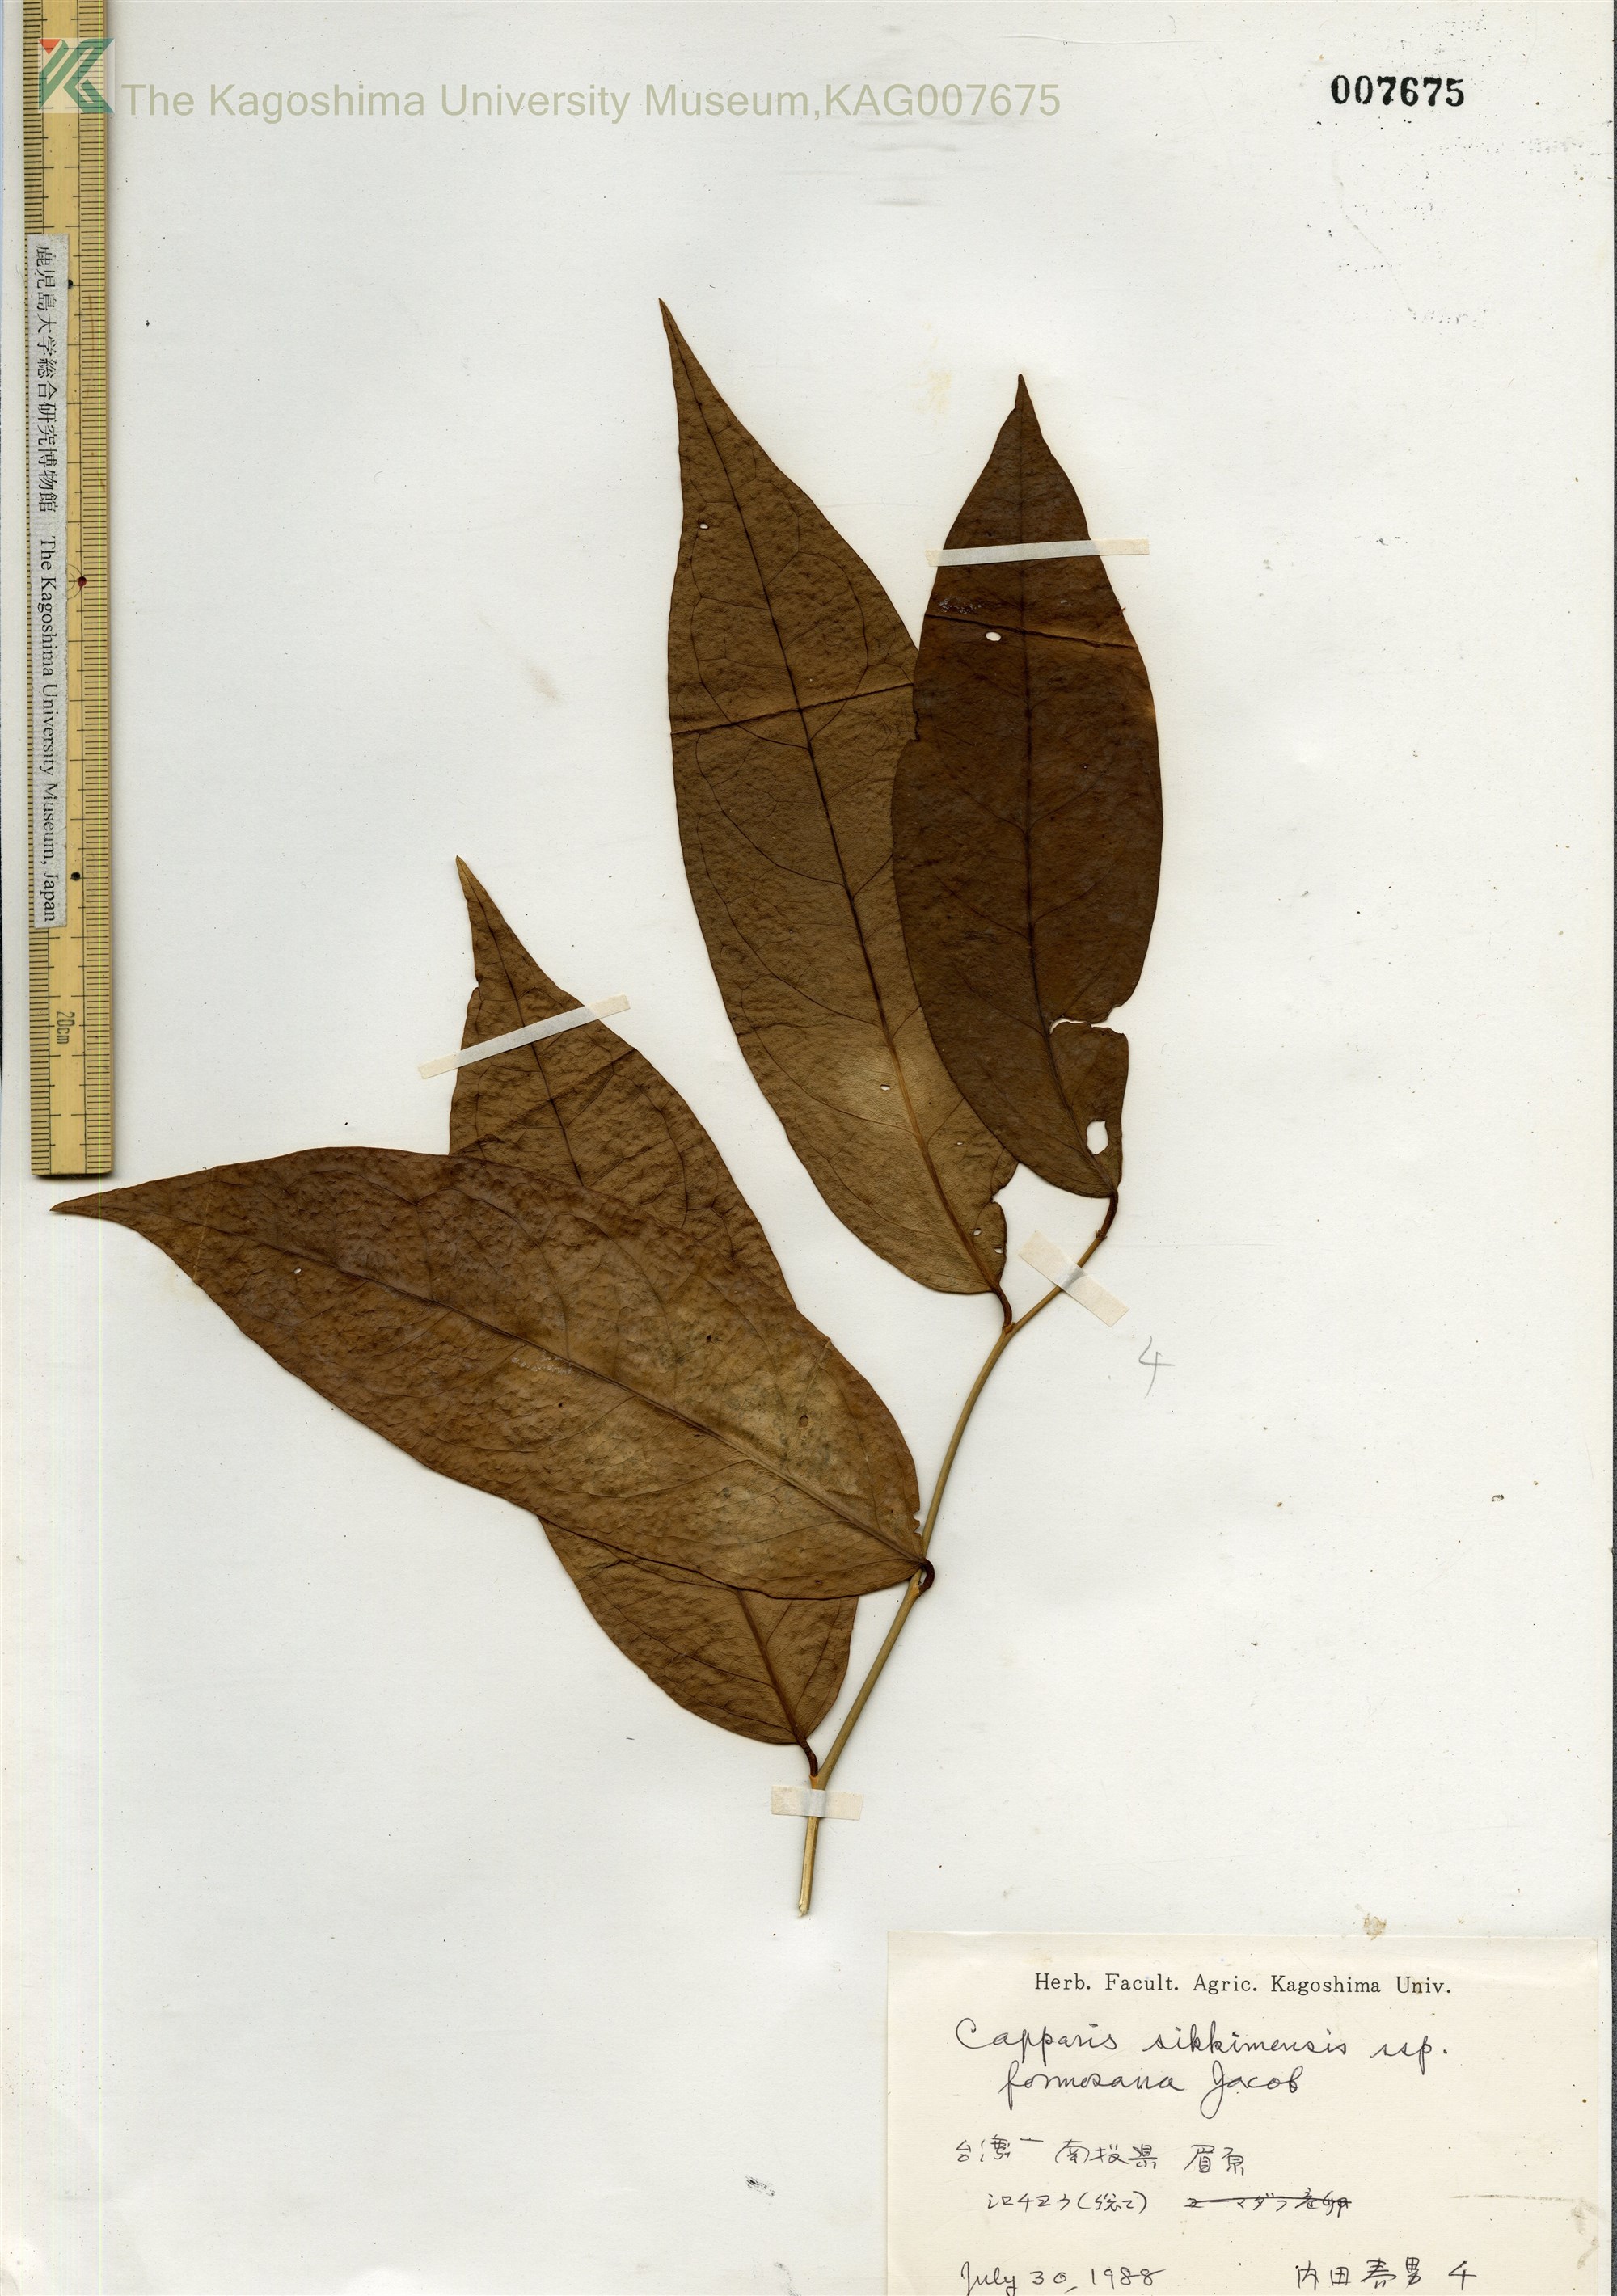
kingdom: Plantae
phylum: Tracheophyta
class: Magnoliopsida
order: Brassicales
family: Capparaceae
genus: Capparis
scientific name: Capparis sikkimensis
